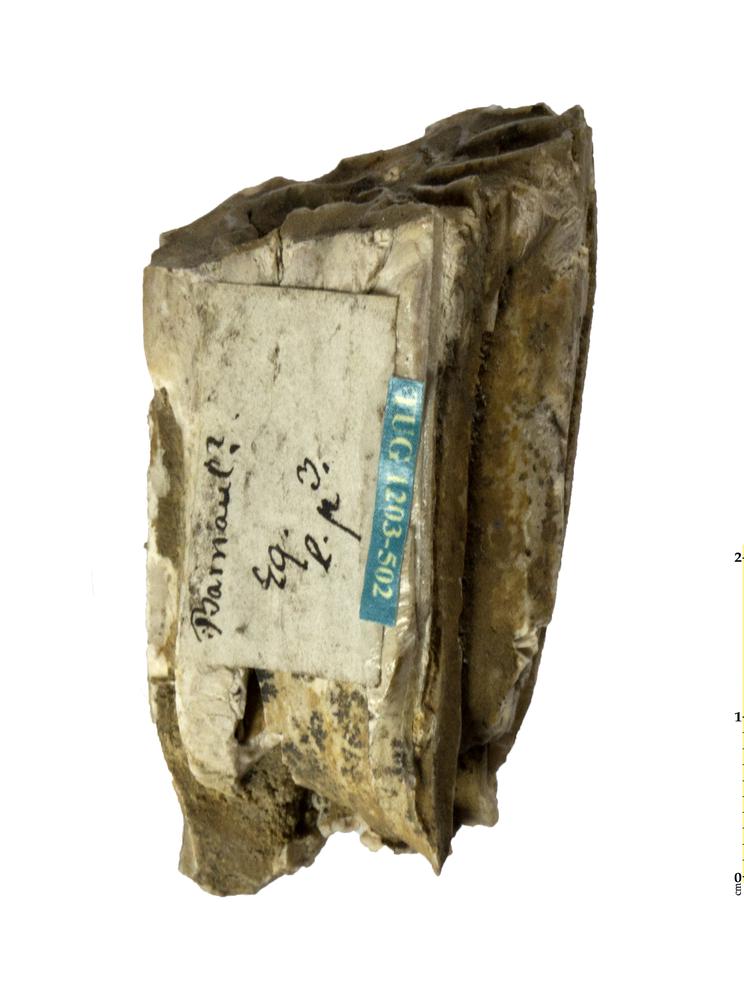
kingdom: Animalia
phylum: Chordata
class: Mammalia
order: Perissodactyla
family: Equidae
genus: Equus
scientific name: Equus
